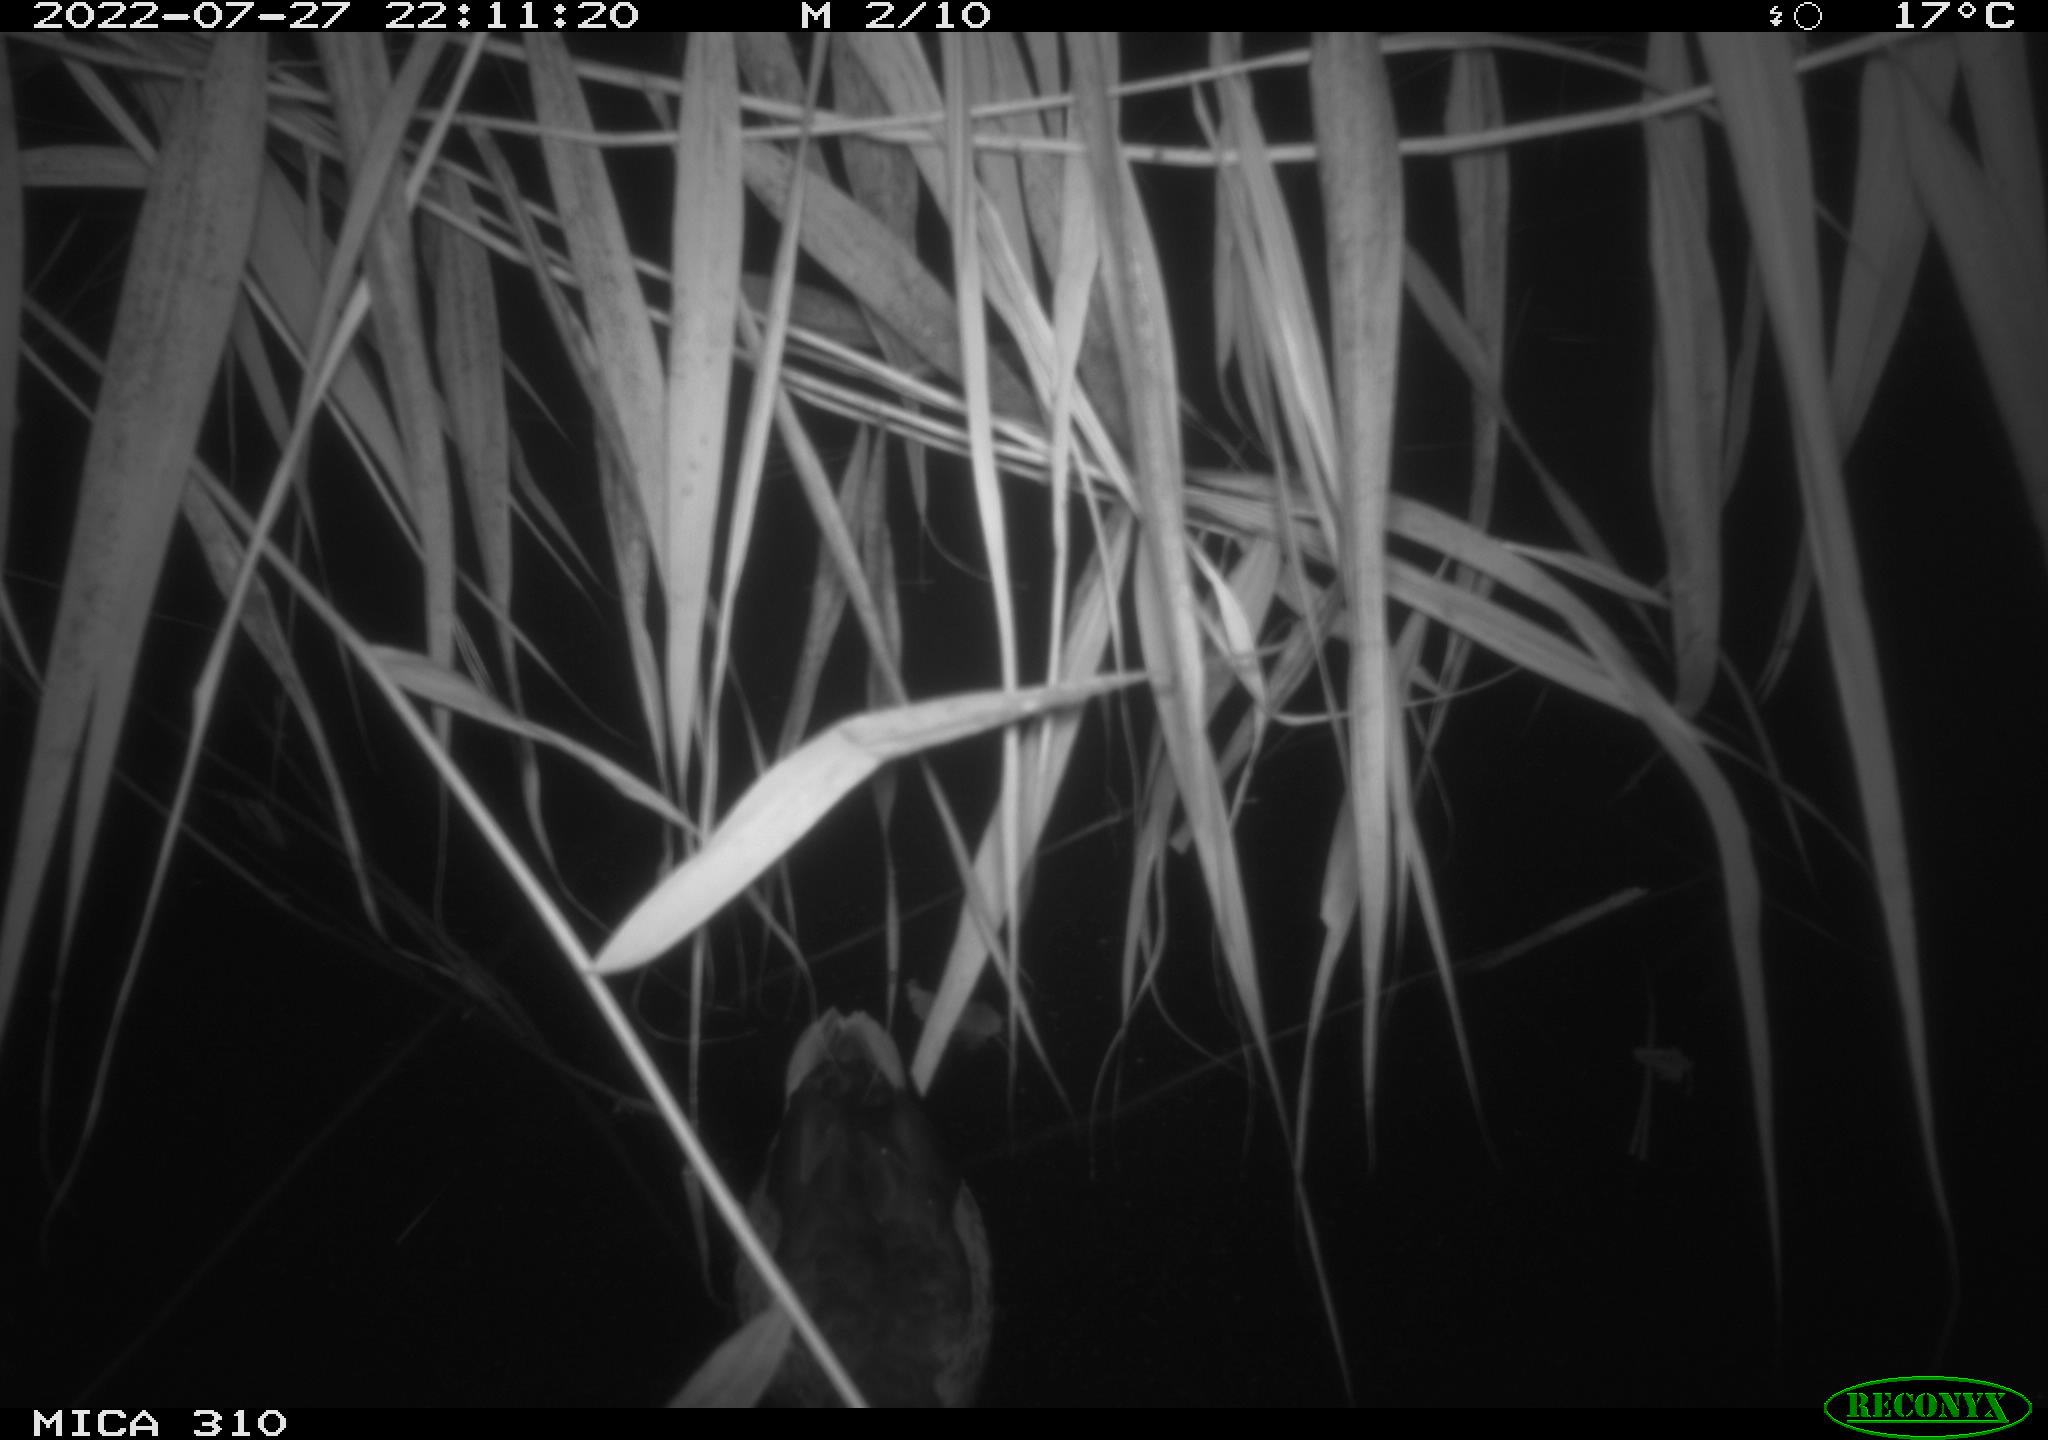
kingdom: Animalia
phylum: Chordata
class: Aves
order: Anseriformes
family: Anatidae
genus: Anas
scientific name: Anas platyrhynchos
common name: Mallard
